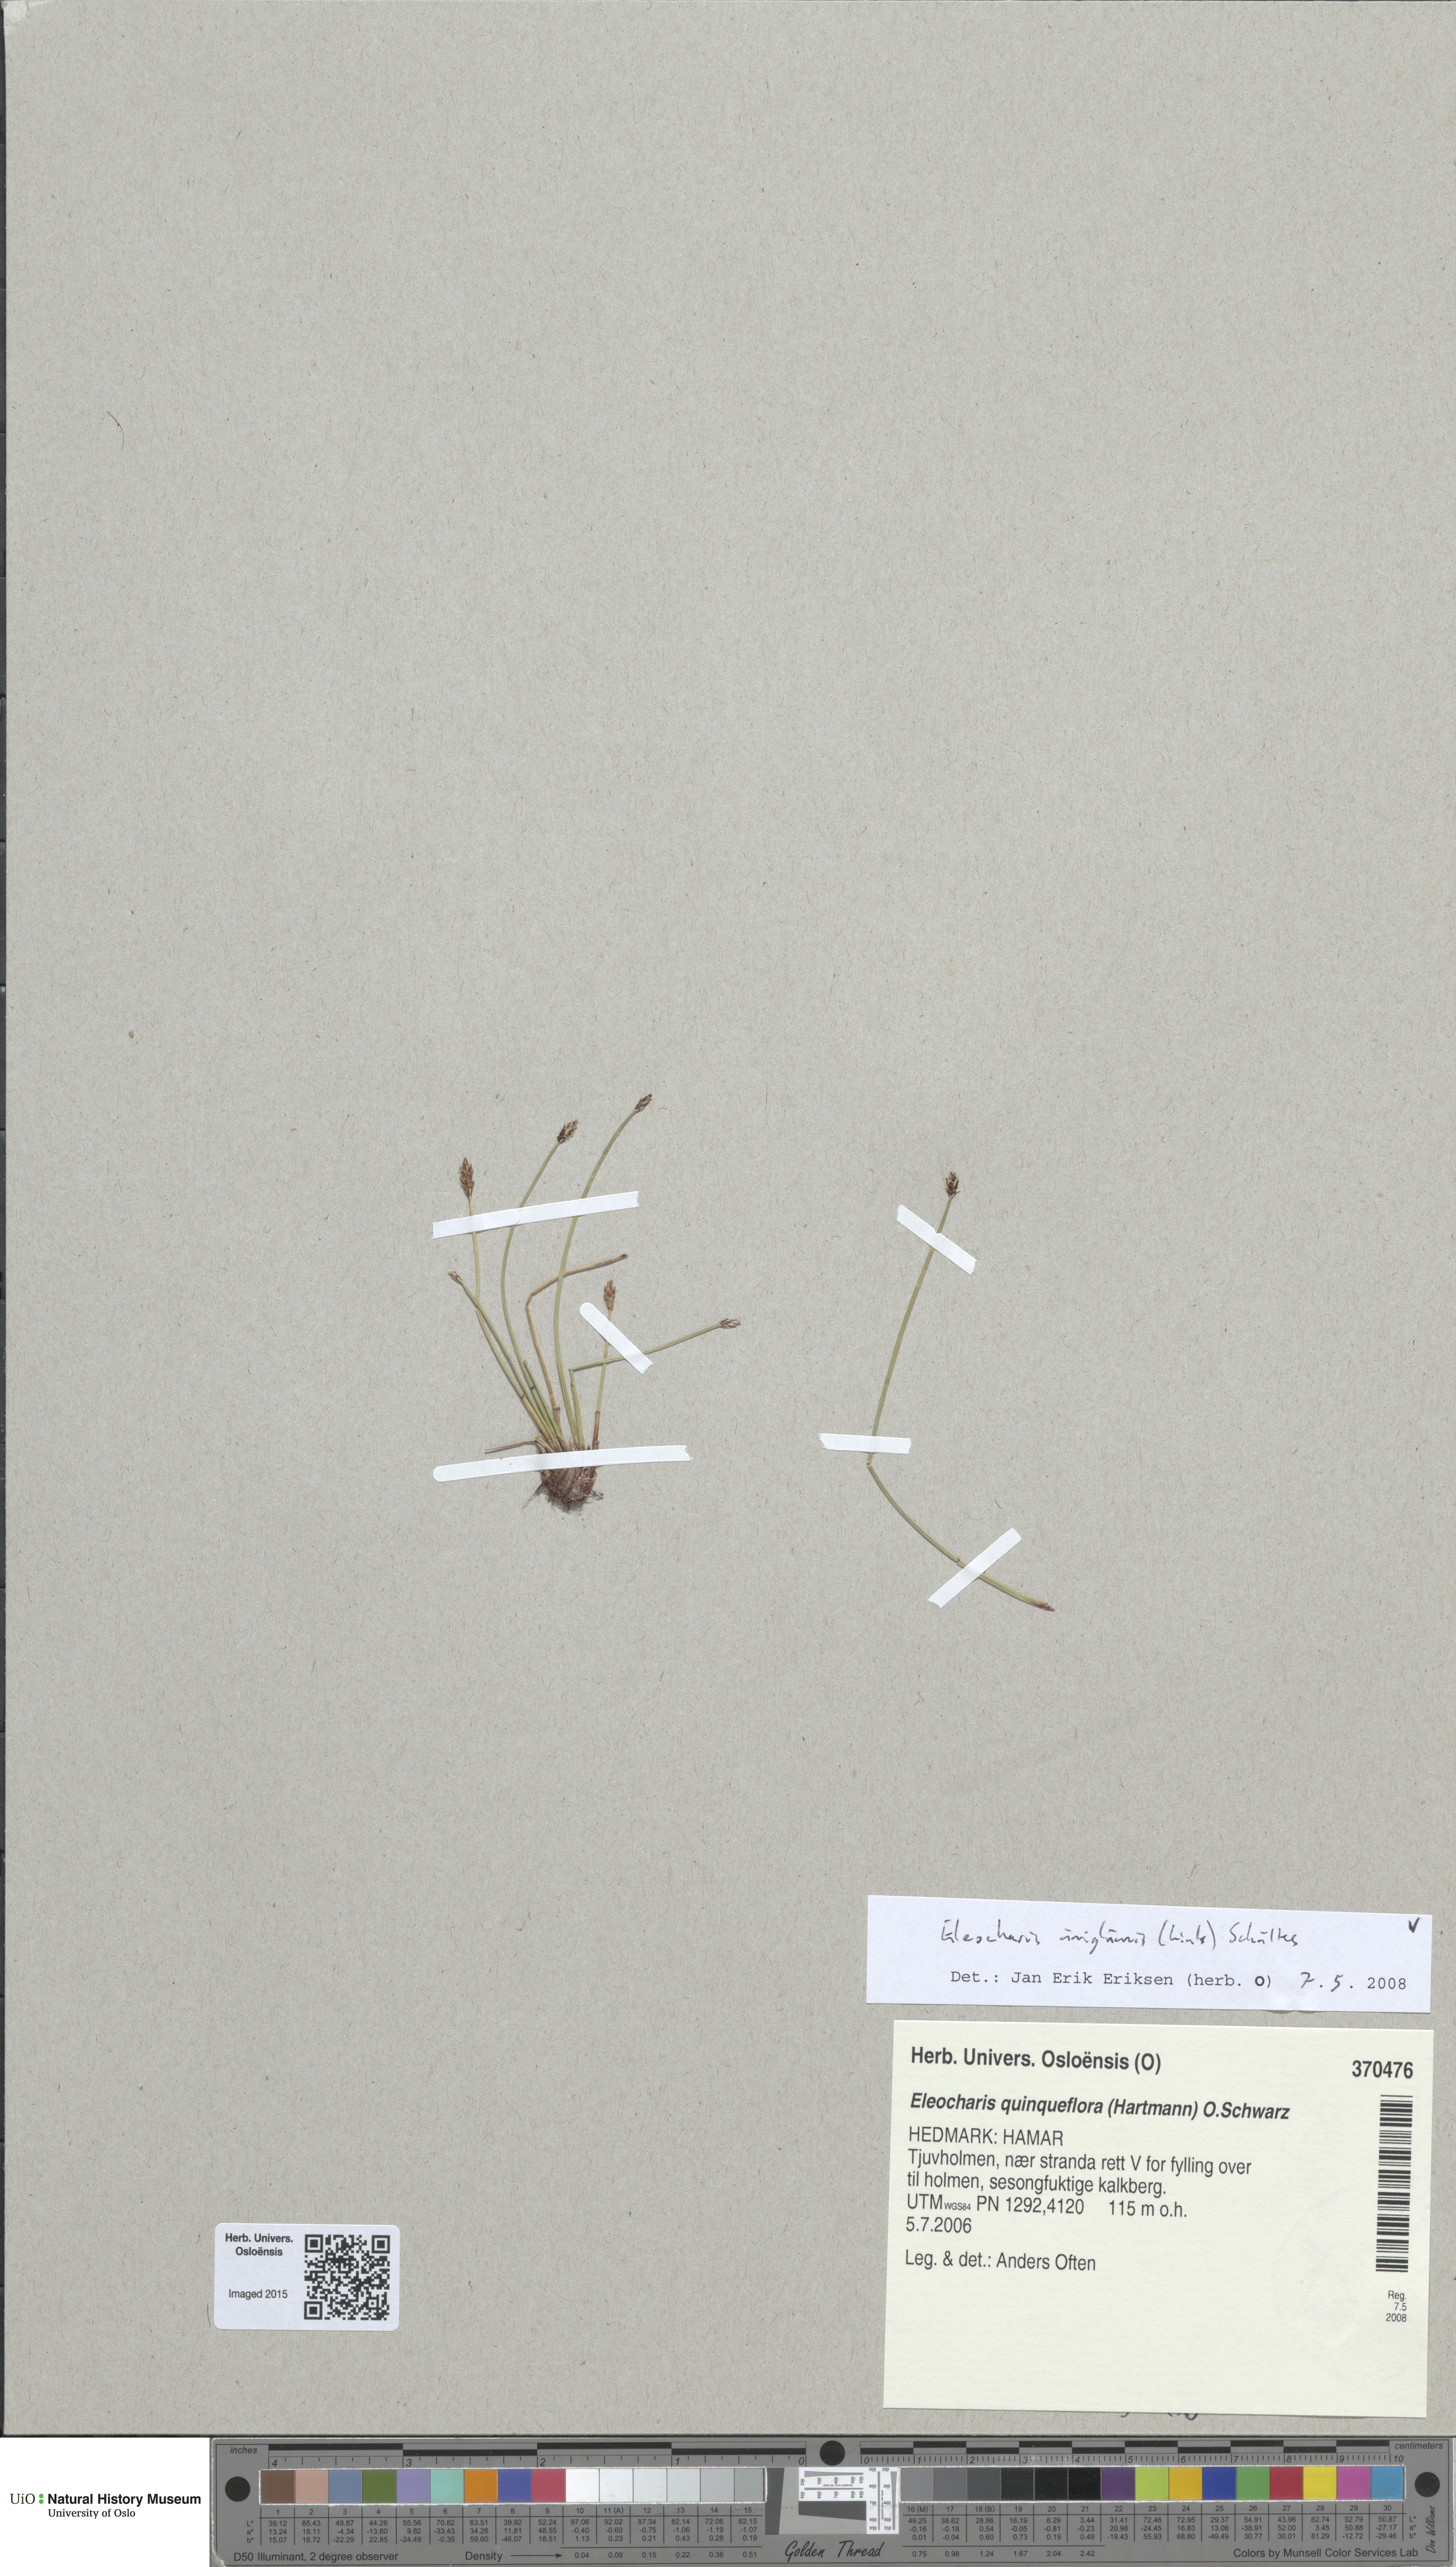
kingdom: Plantae
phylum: Tracheophyta
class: Liliopsida
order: Poales
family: Cyperaceae
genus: Eleocharis
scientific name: Eleocharis uniglumis
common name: Slender spike-rush
